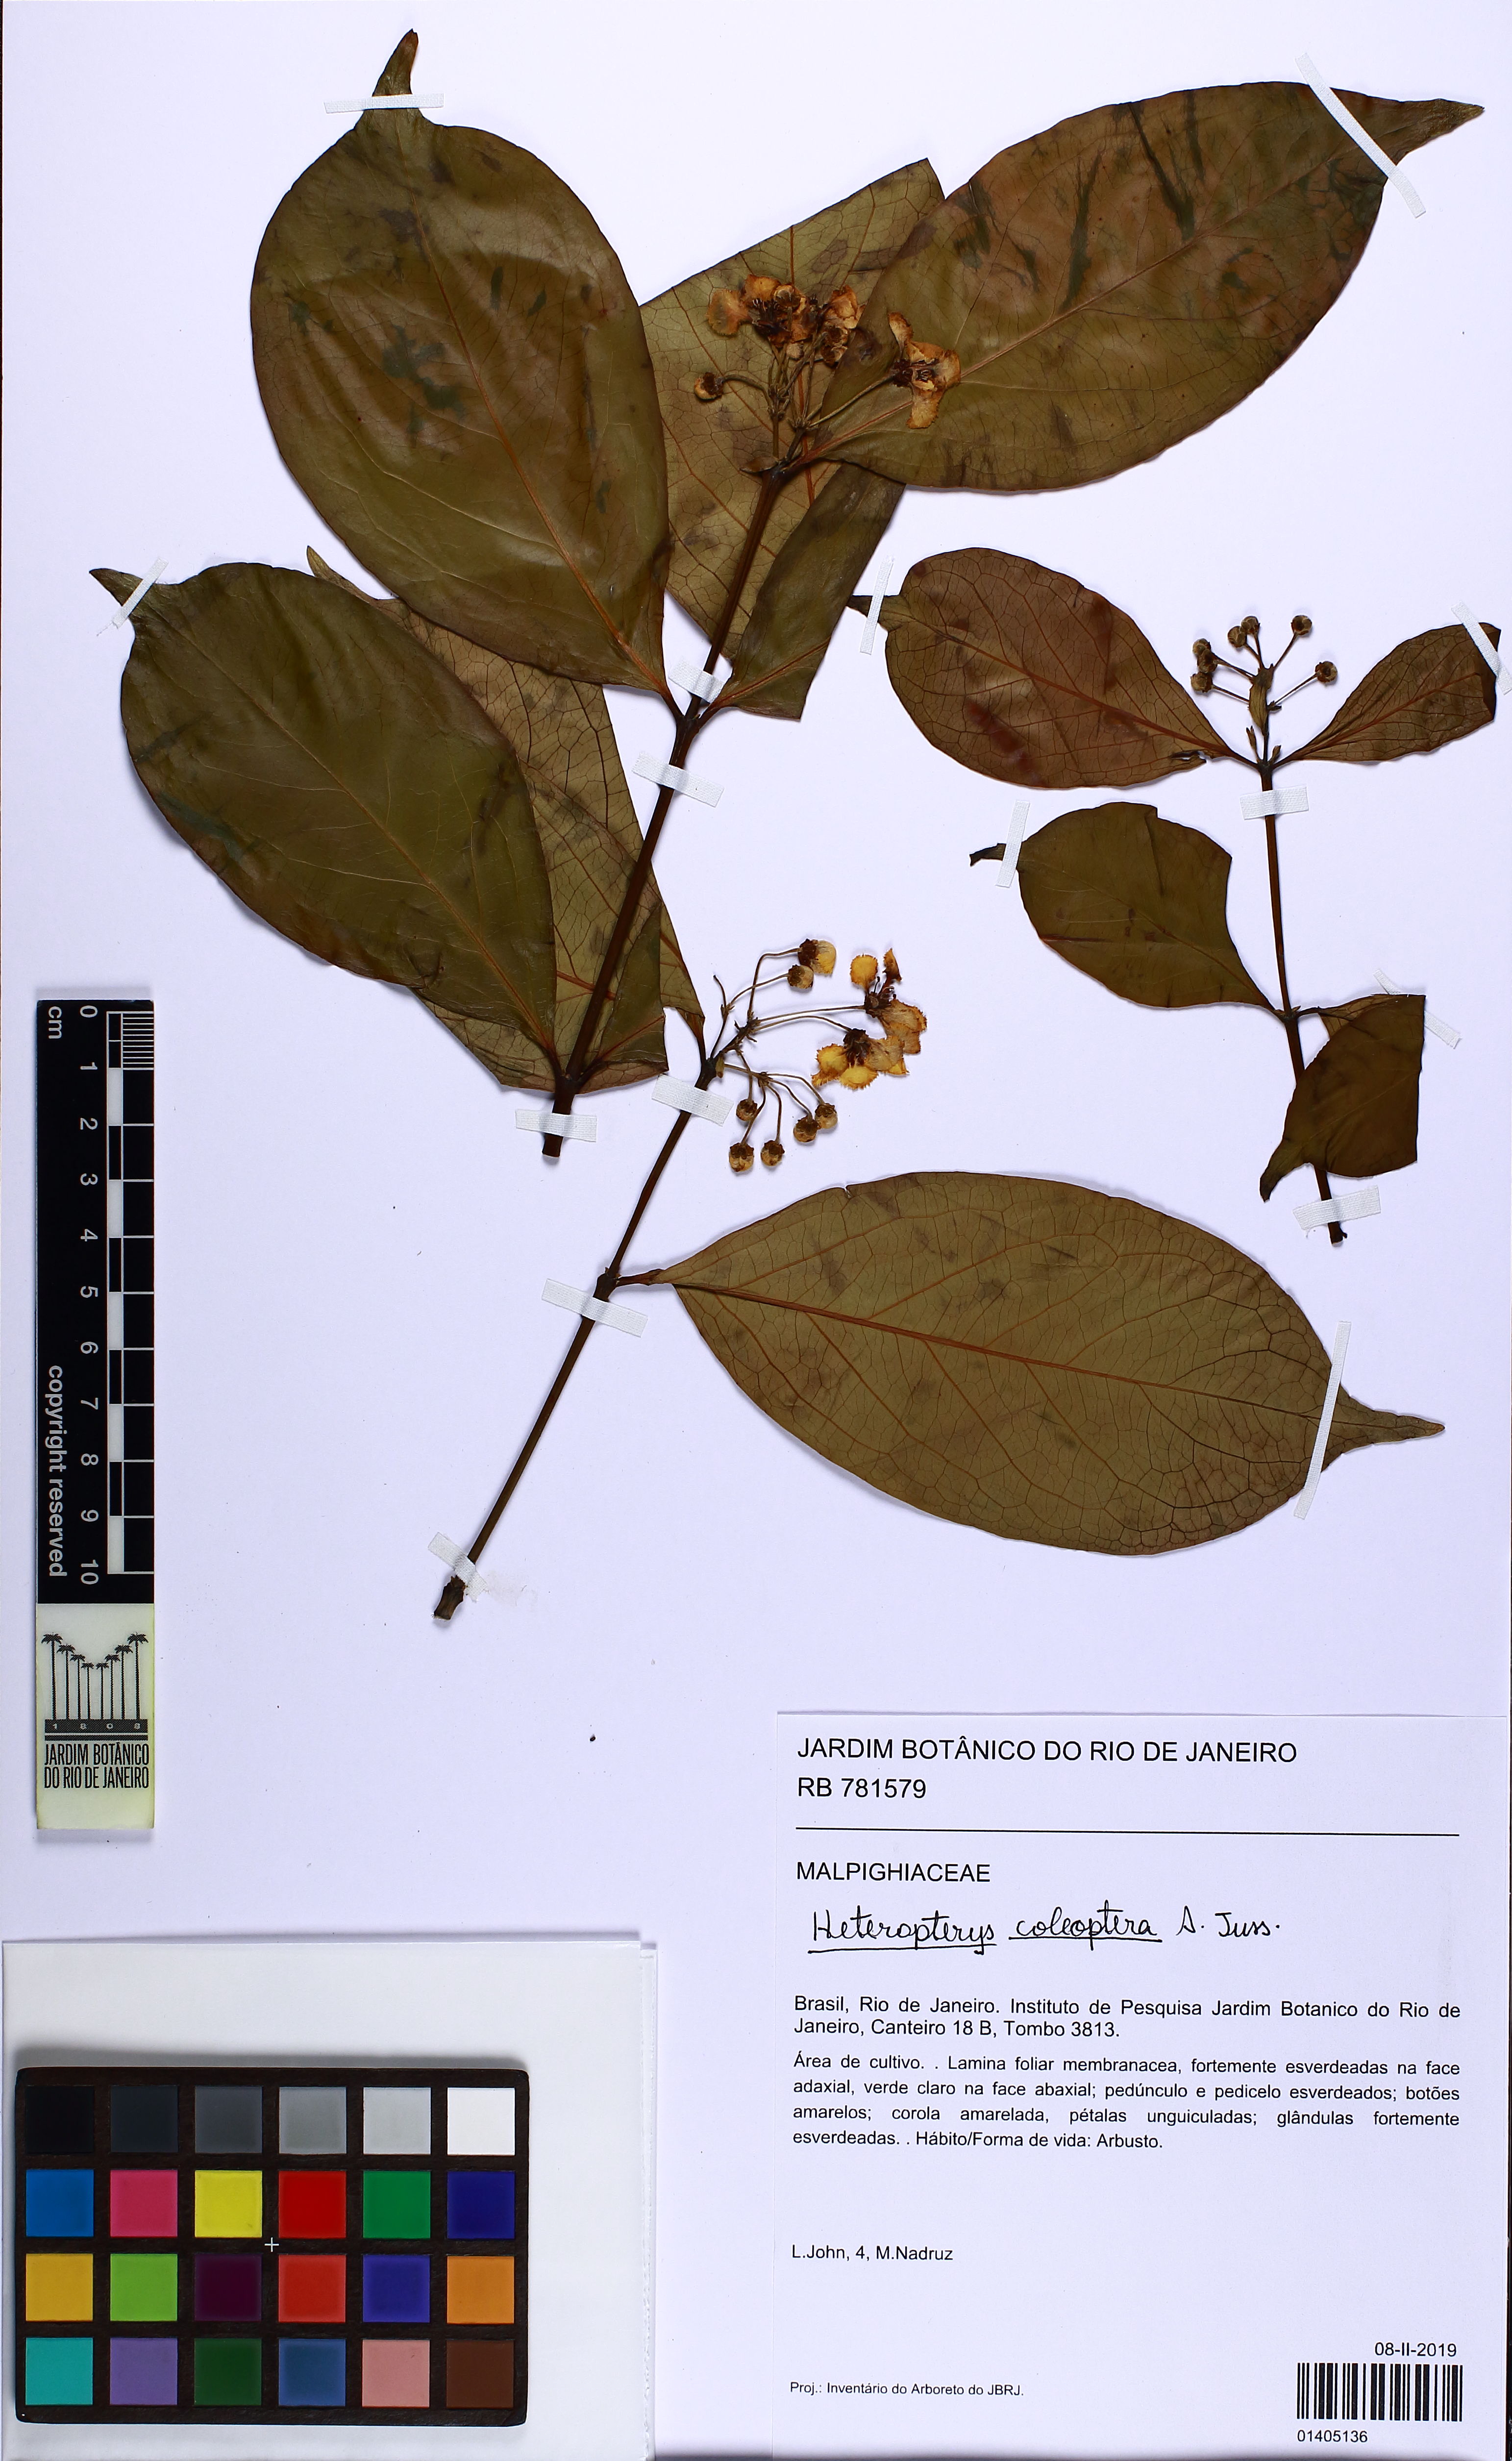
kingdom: Plantae
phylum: Tracheophyta
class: Magnoliopsida
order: Malpighiales
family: Malpighiaceae
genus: Heteropterys
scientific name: Heteropterys coleoptera
